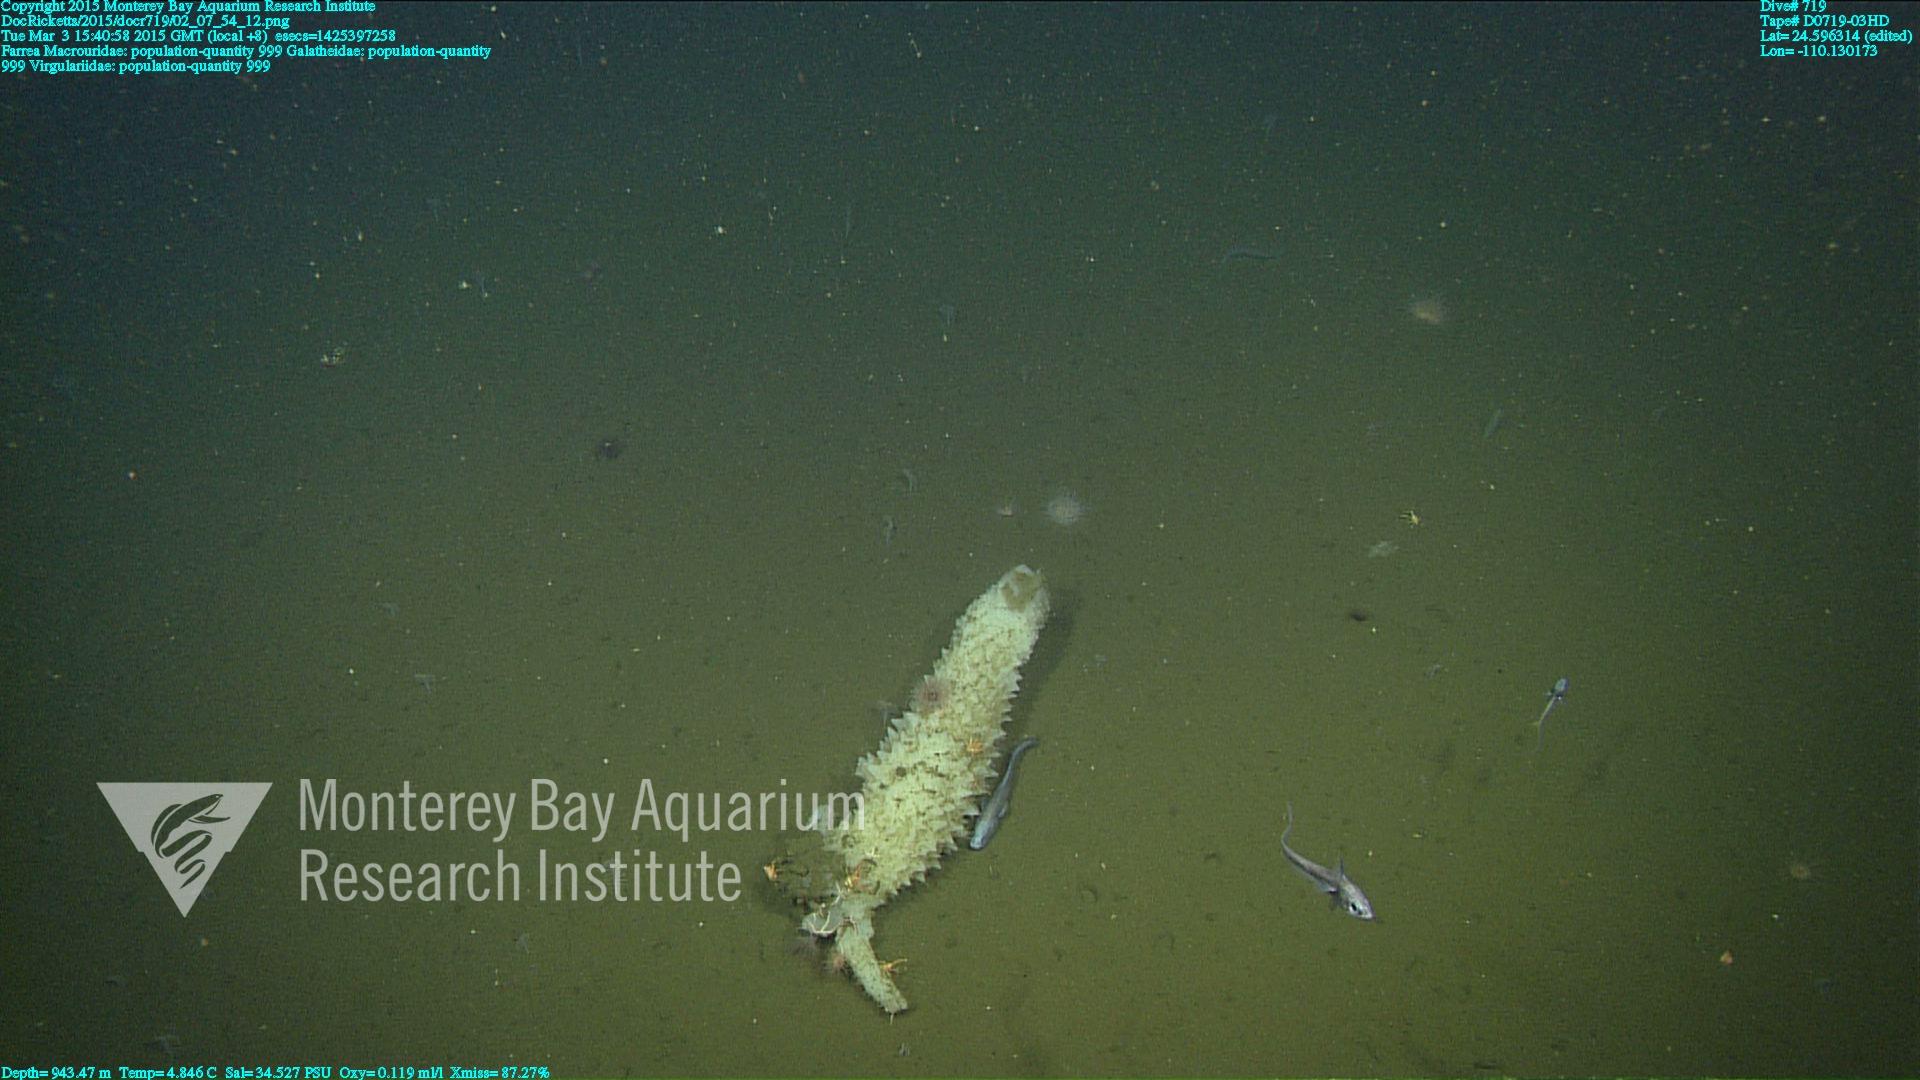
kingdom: Animalia
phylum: Cnidaria
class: Anthozoa
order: Scleralcyonacea
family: Virgulariidae
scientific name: Virgulariidae
